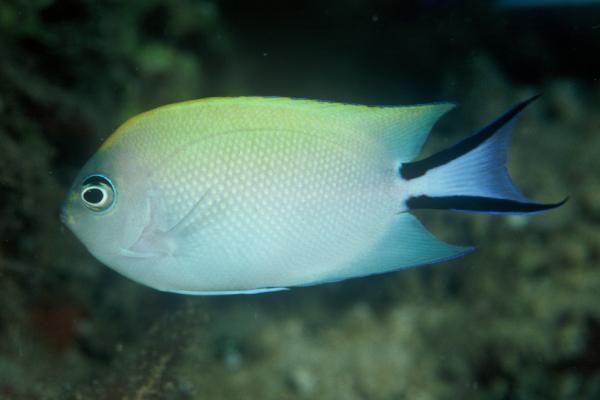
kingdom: Animalia
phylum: Chordata
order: Perciformes
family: Pomacanthidae
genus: Genicanthus
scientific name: Genicanthus melanospilos
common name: Black-spot angelfish
